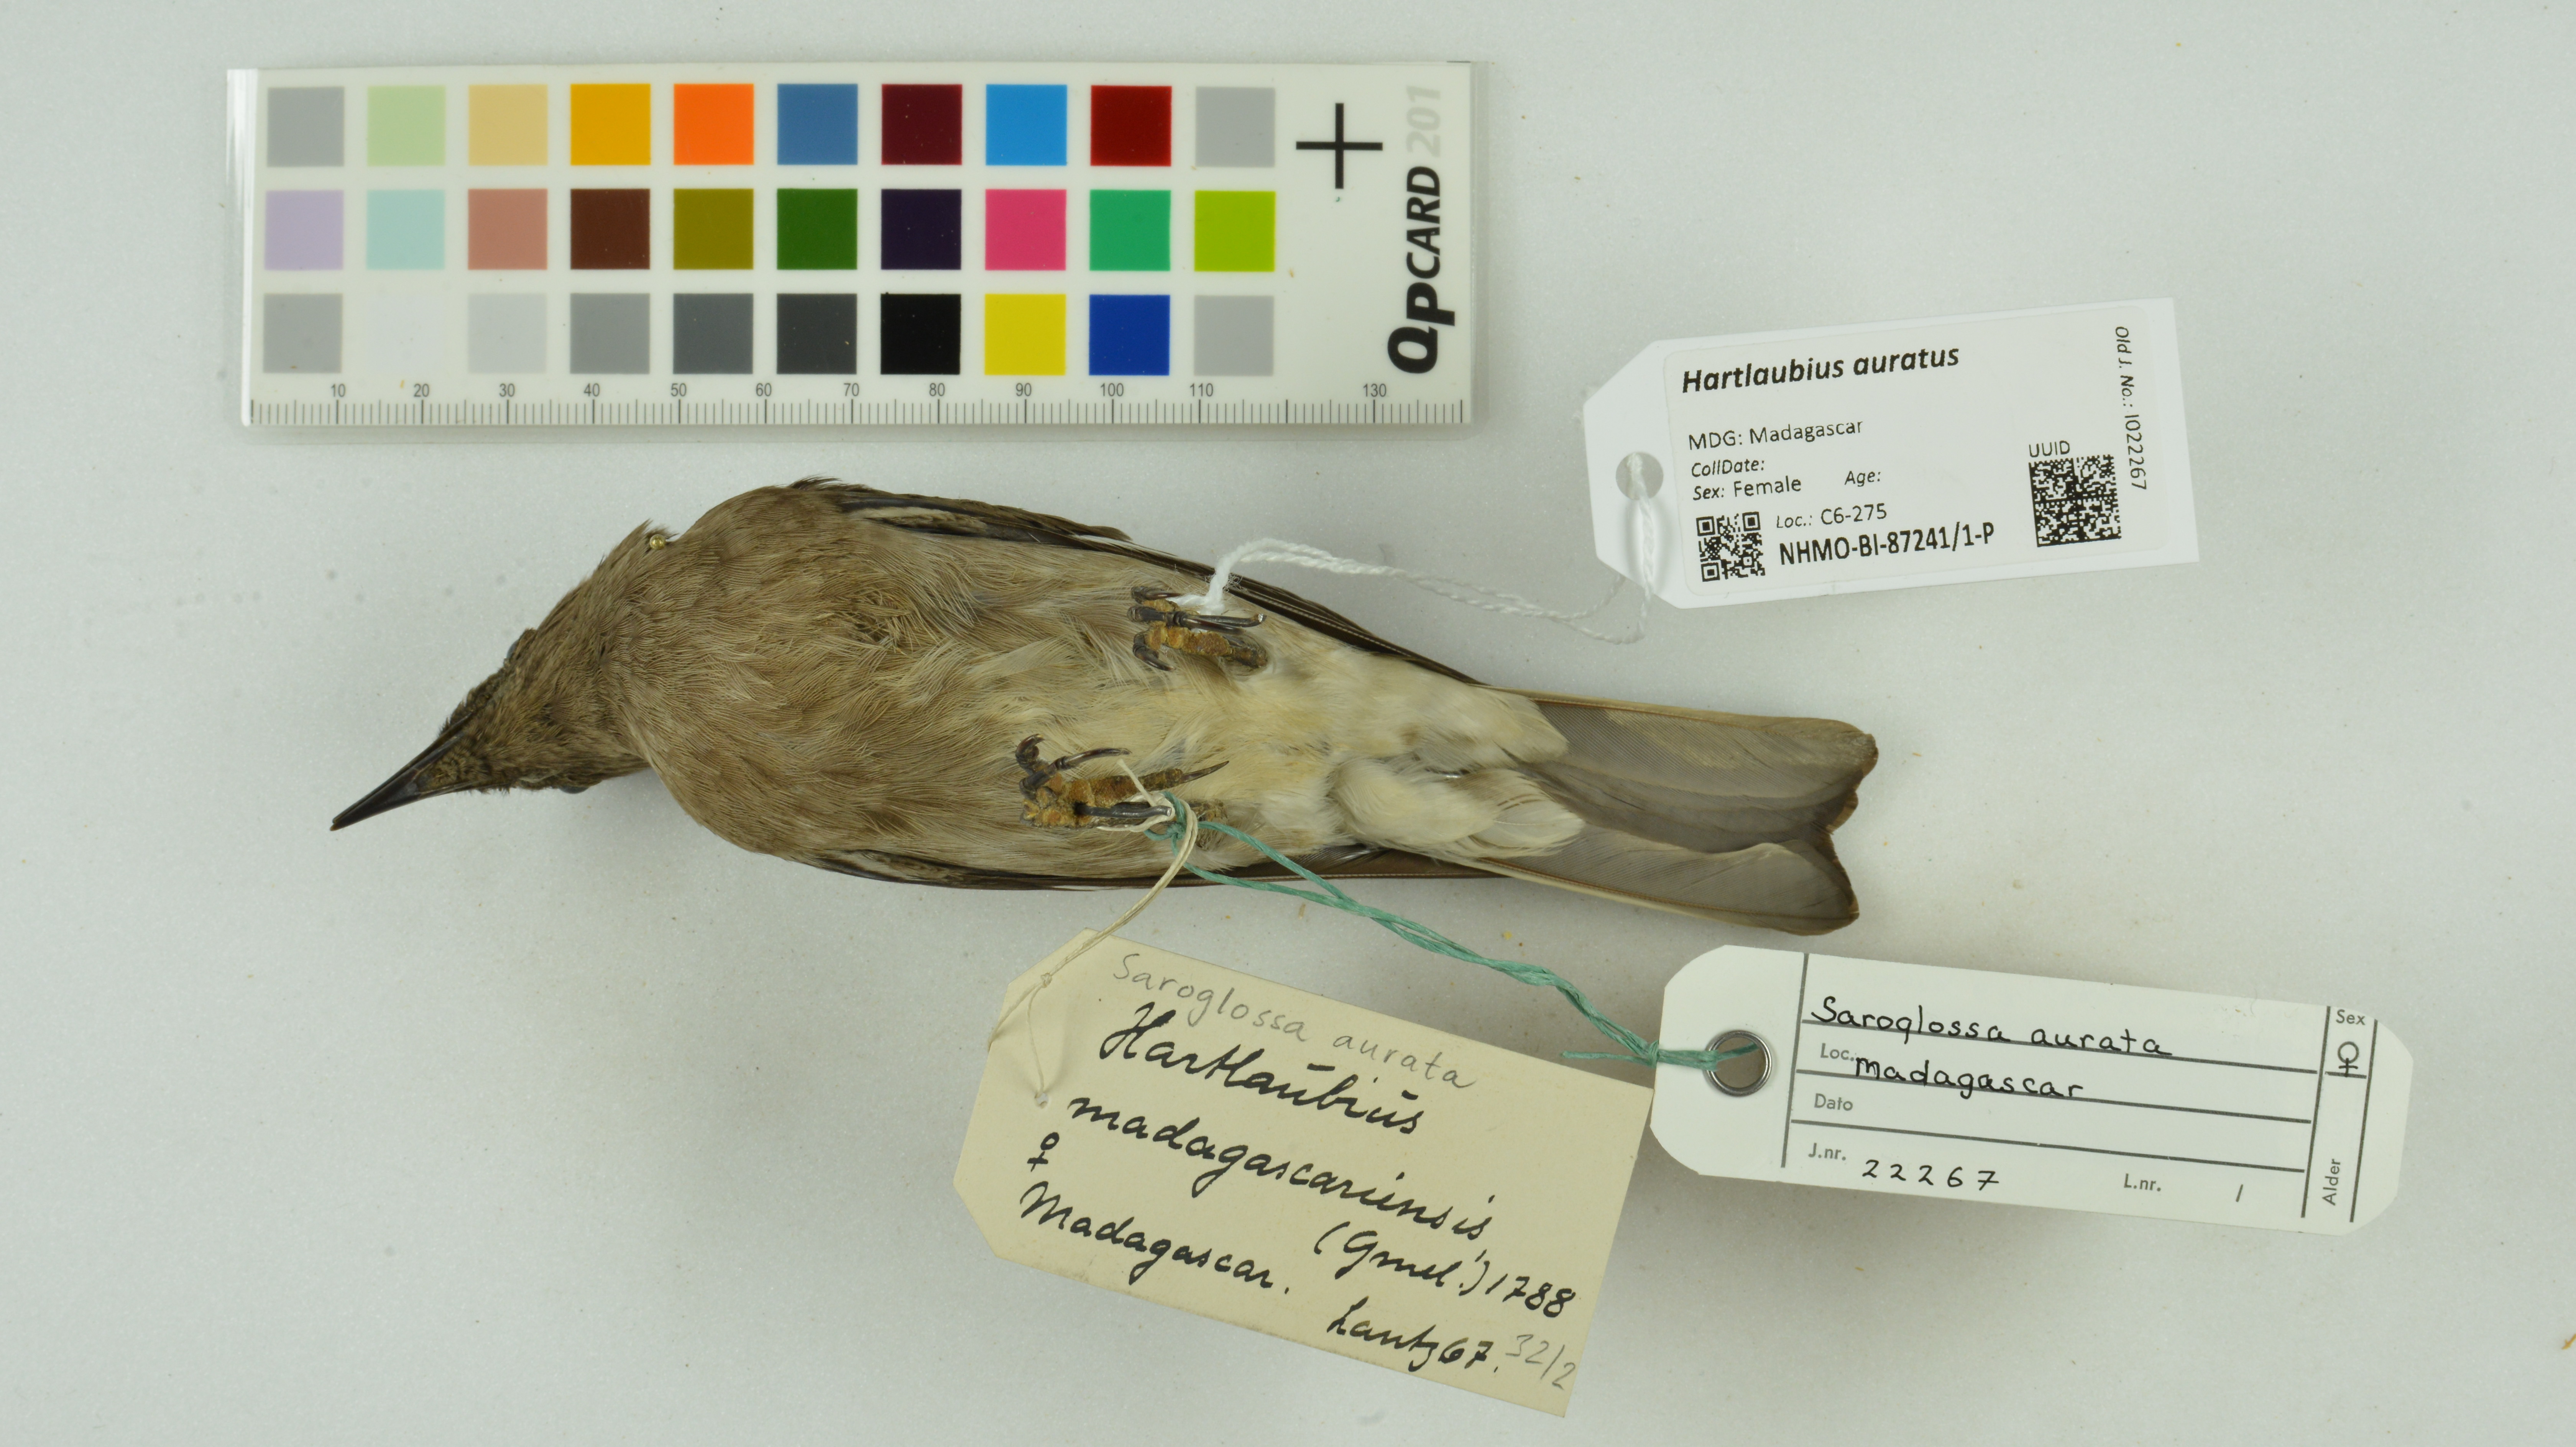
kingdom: Animalia
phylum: Chordata
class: Aves
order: Passeriformes
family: Sturnidae
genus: Hartlaubius
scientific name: Hartlaubius auratus
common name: Madagascar starling
